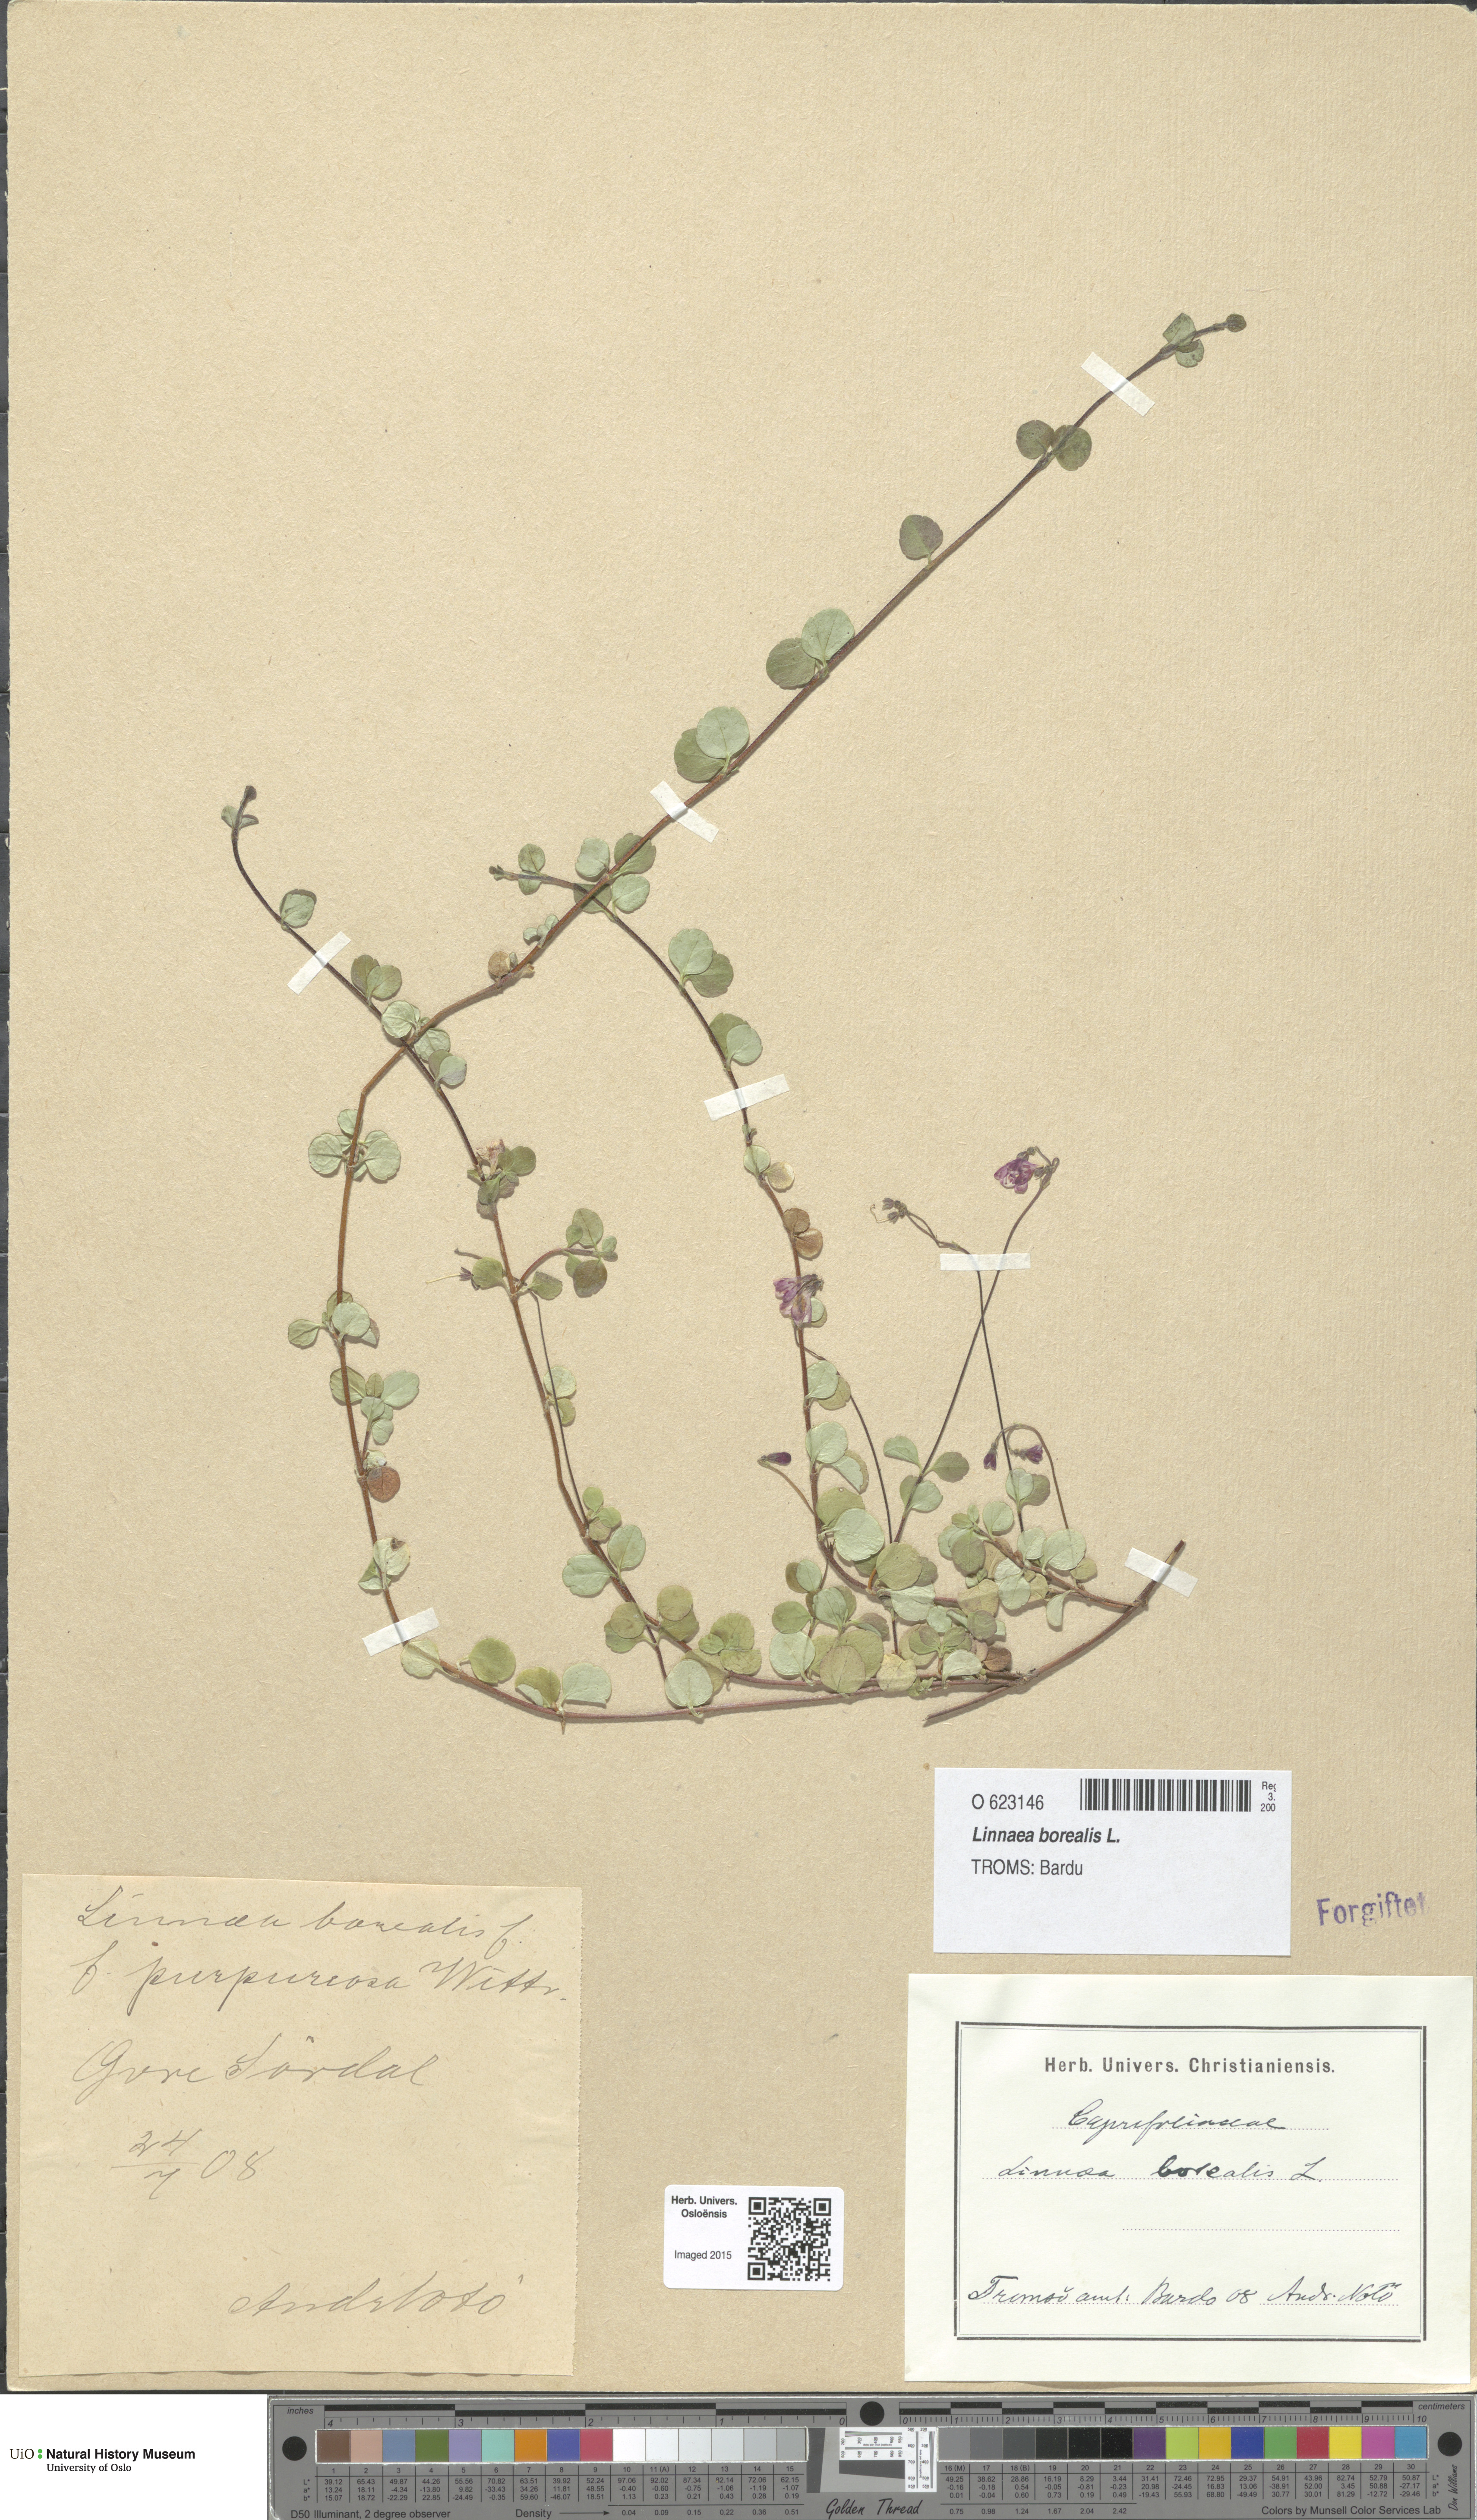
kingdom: Plantae
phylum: Tracheophyta
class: Magnoliopsida
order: Dipsacales
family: Caprifoliaceae
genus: Linnaea
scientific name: Linnaea borealis
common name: Twinflower
